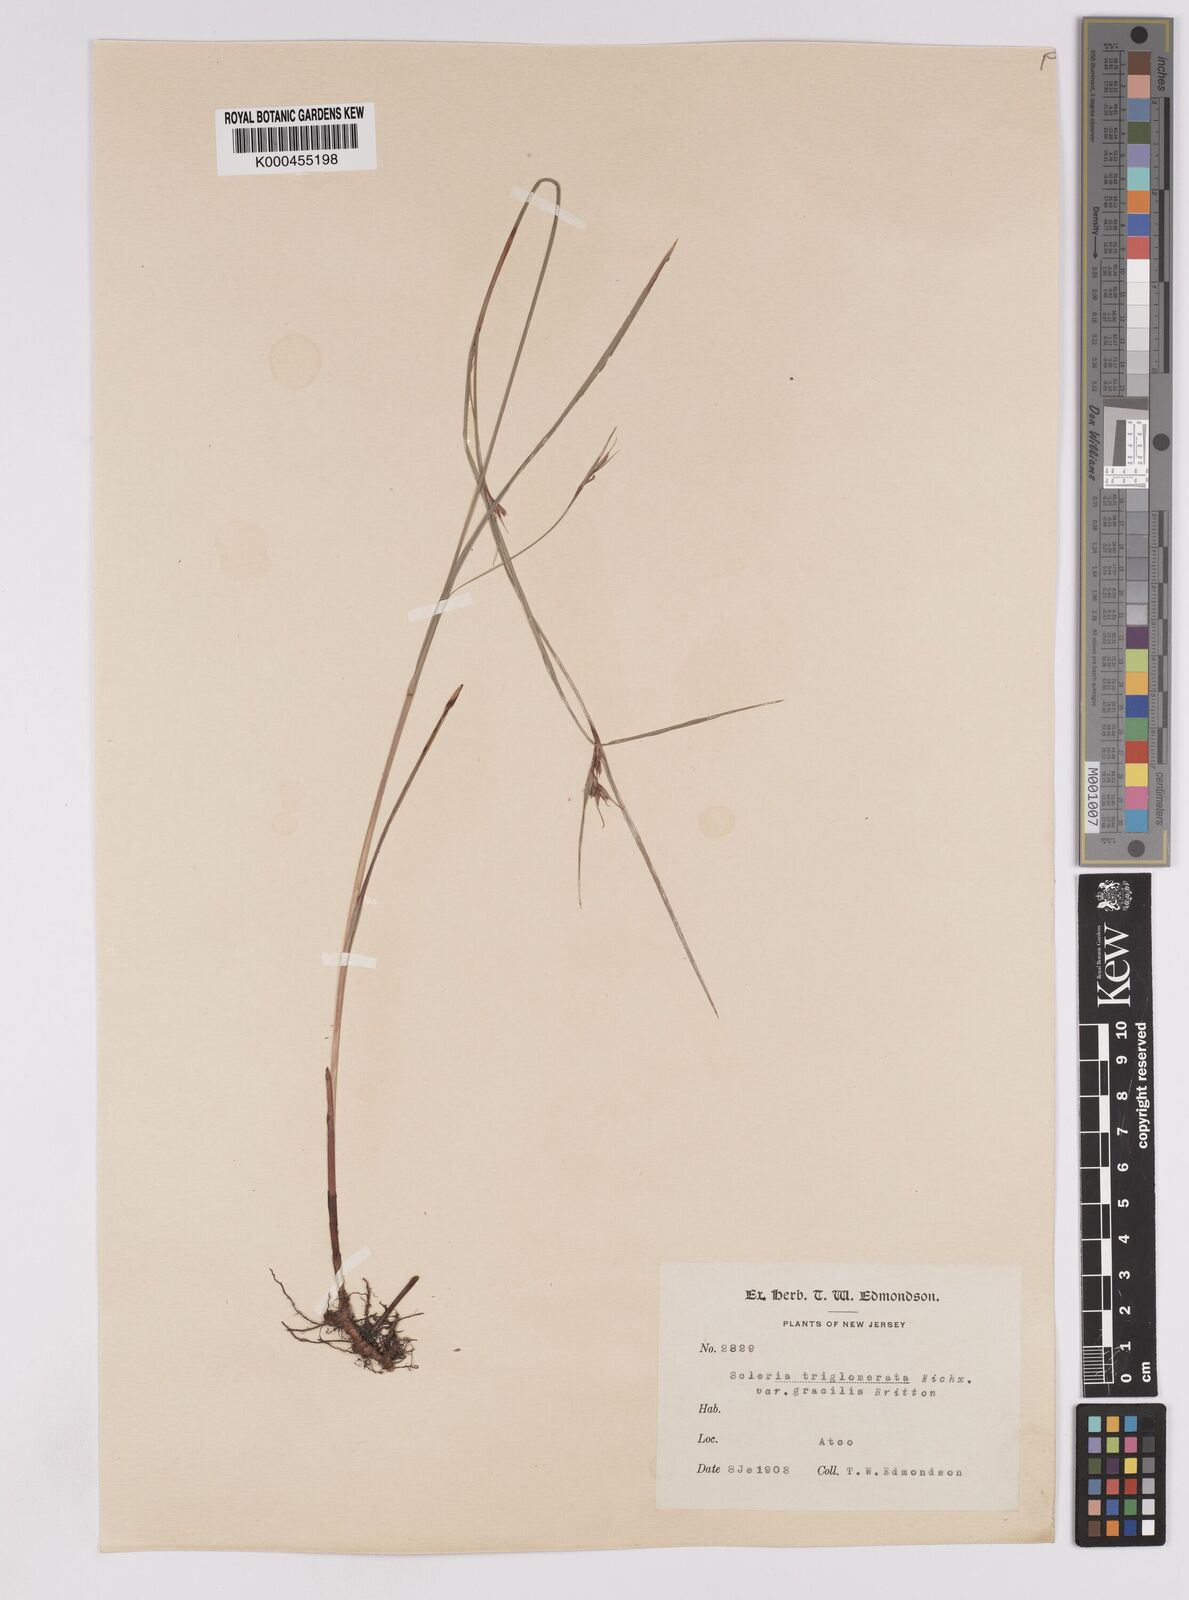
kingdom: Plantae
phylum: Tracheophyta
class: Liliopsida
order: Poales
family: Cyperaceae
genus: Scleria
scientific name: Scleria triglomerata
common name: Whip nutrush
